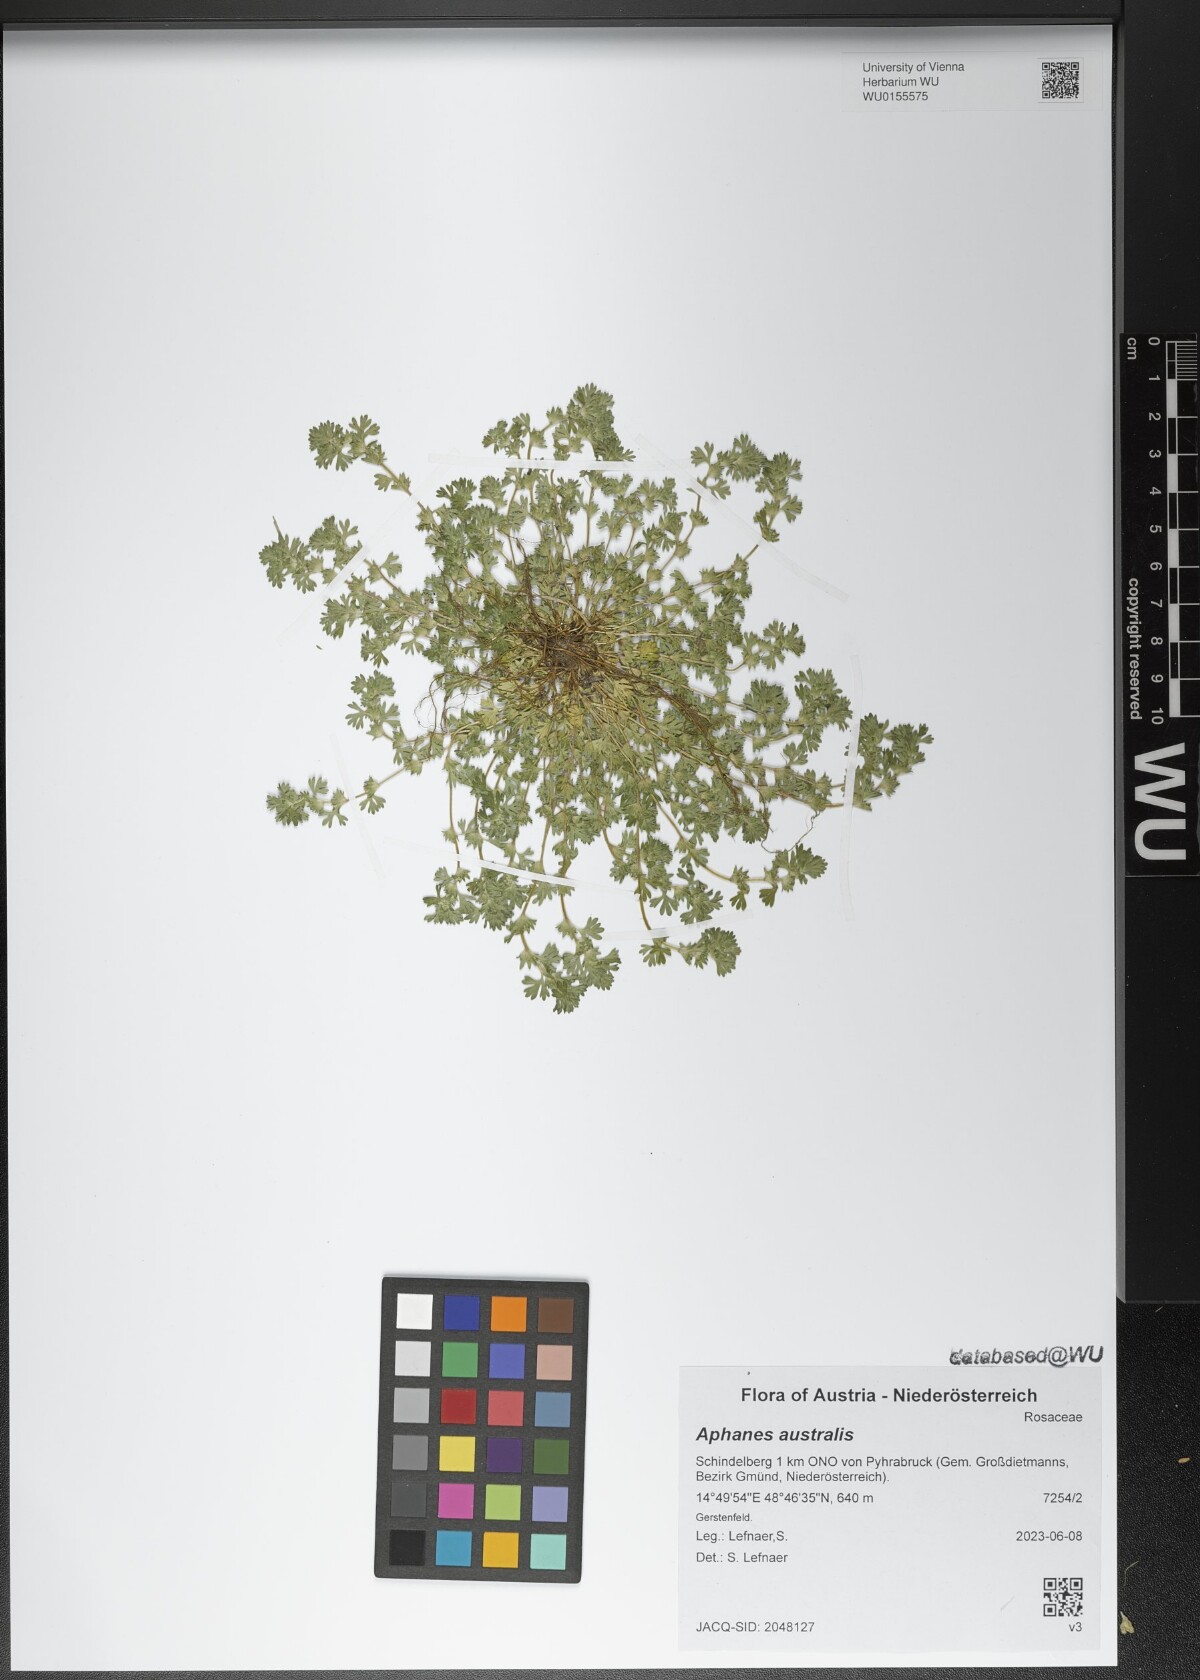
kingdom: Plantae
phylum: Tracheophyta
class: Magnoliopsida
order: Rosales
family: Rosaceae
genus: Aphanes
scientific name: Aphanes australis
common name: Slender parsley-piert
